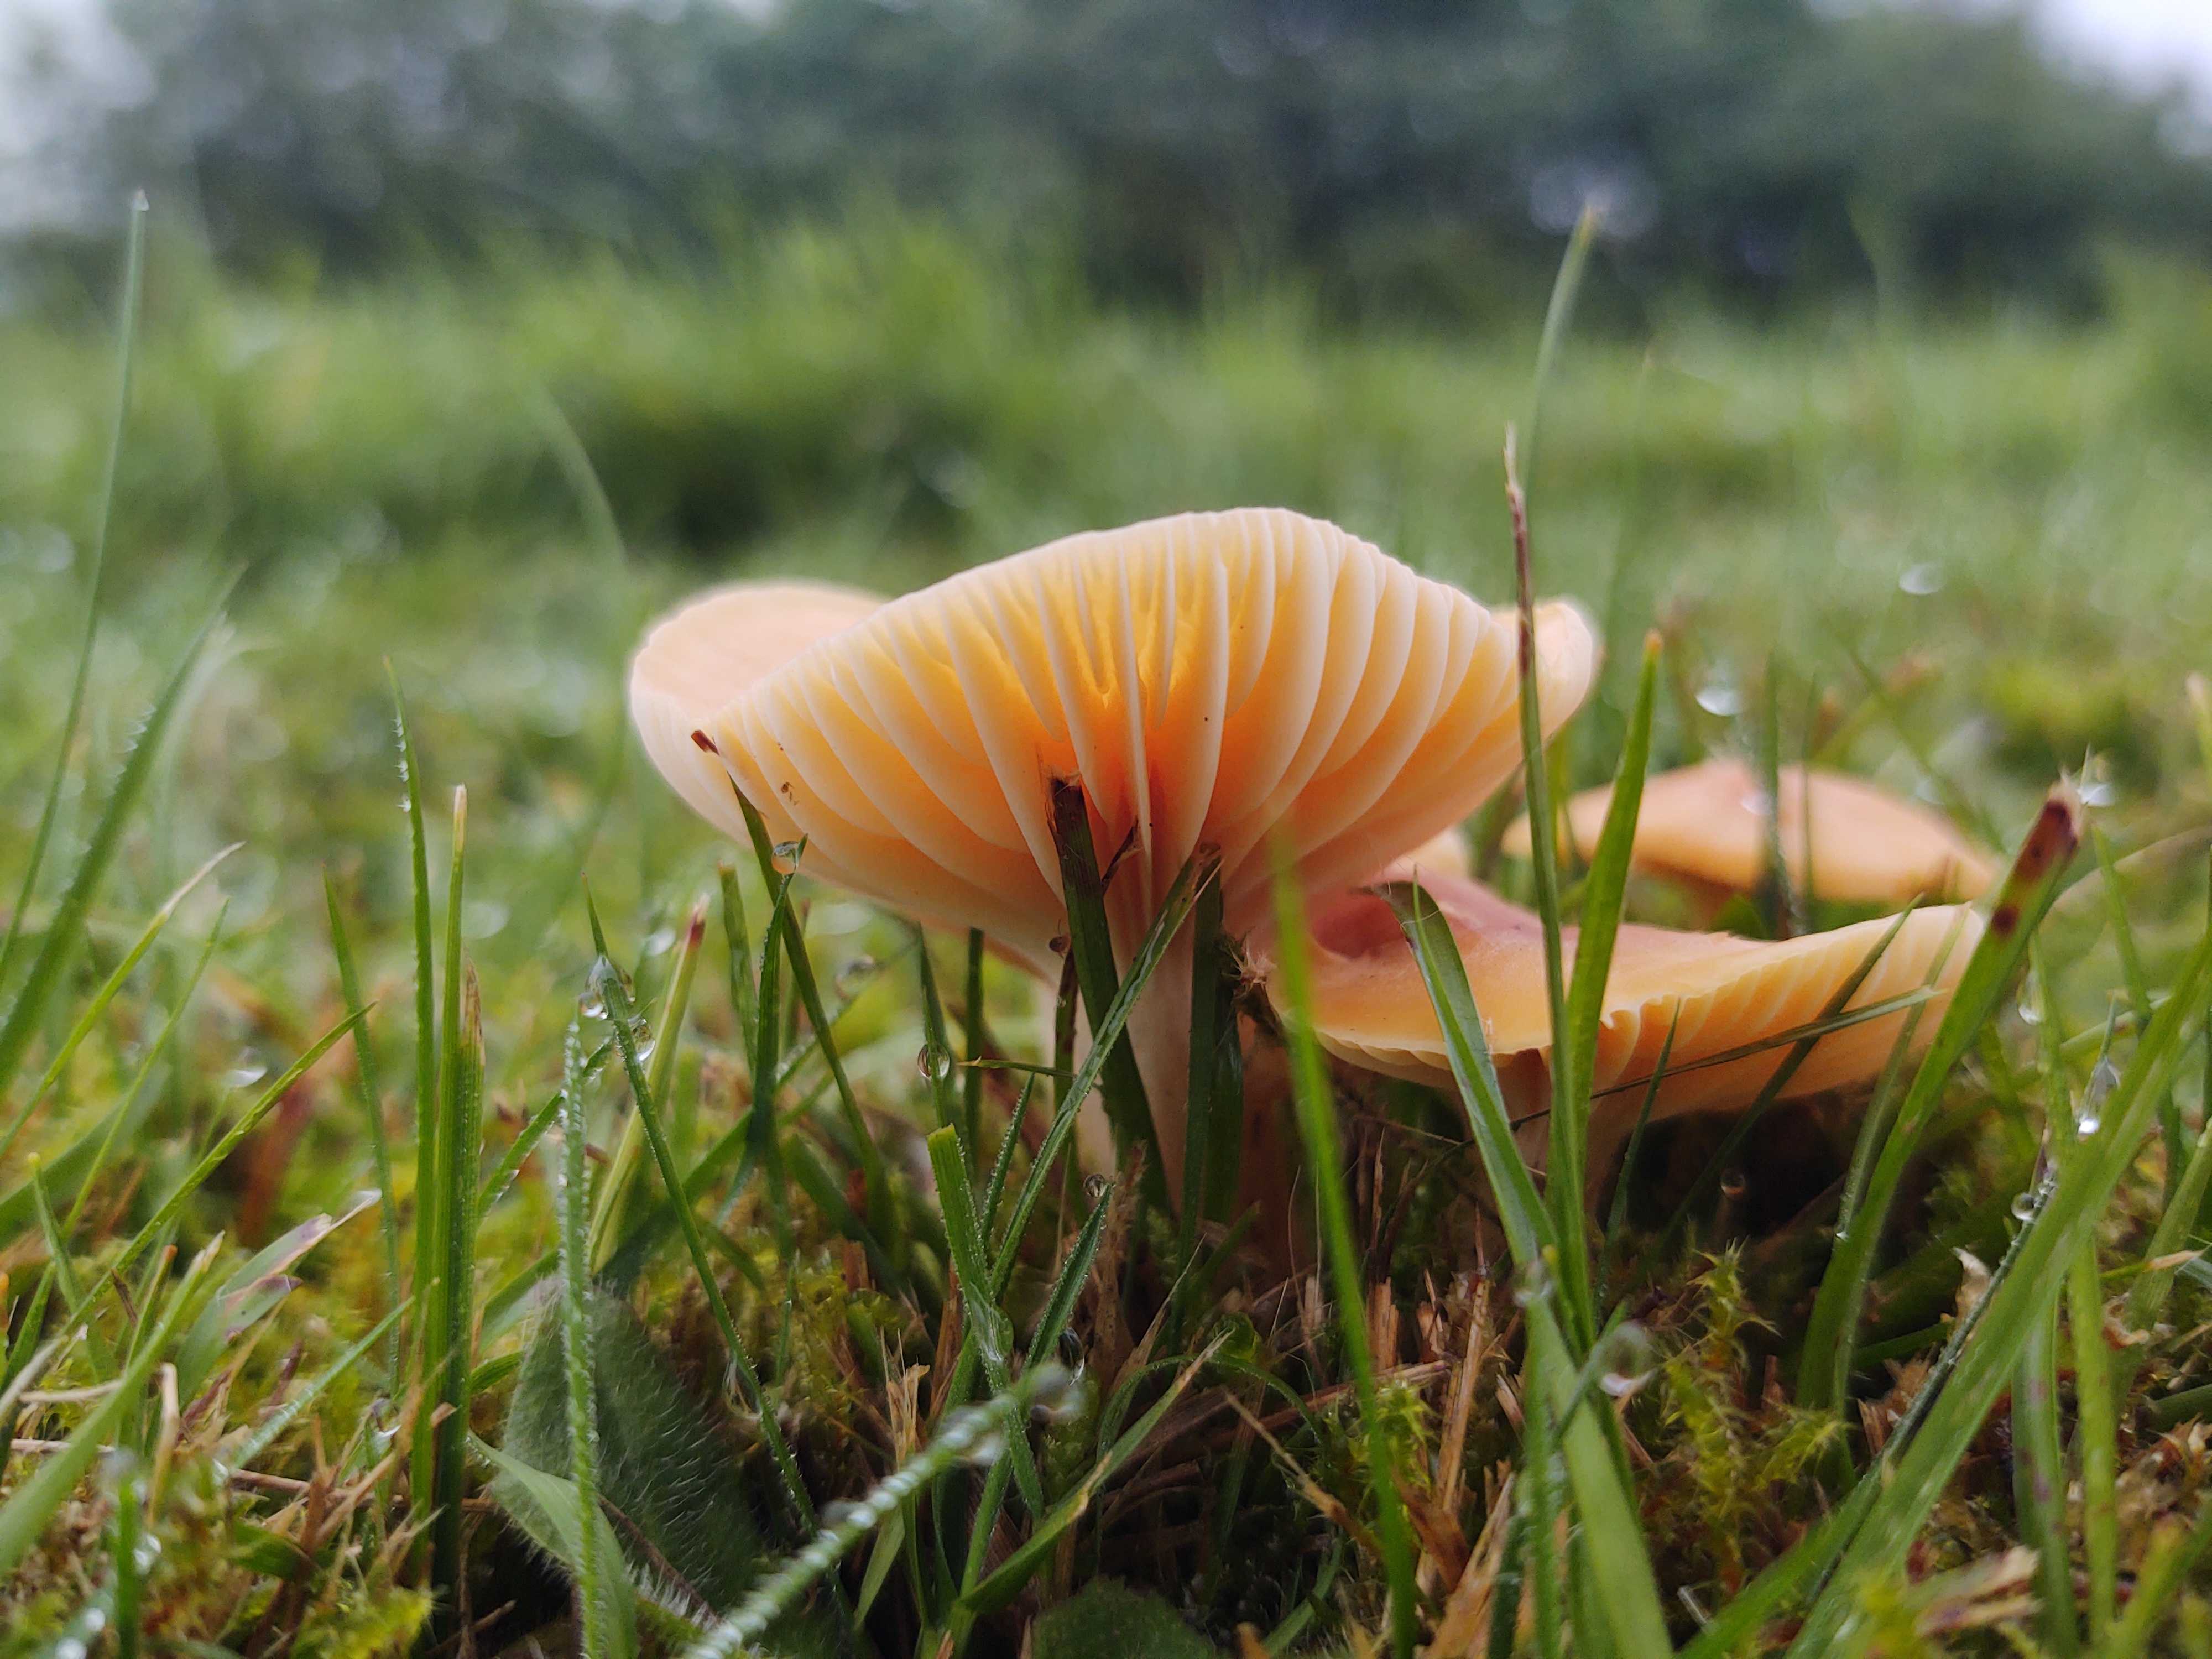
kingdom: Fungi
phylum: Basidiomycota
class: Agaricomycetes
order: Agaricales
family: Hygrophoraceae
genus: Cuphophyllus
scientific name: Cuphophyllus pratensis
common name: eng-vokshat
